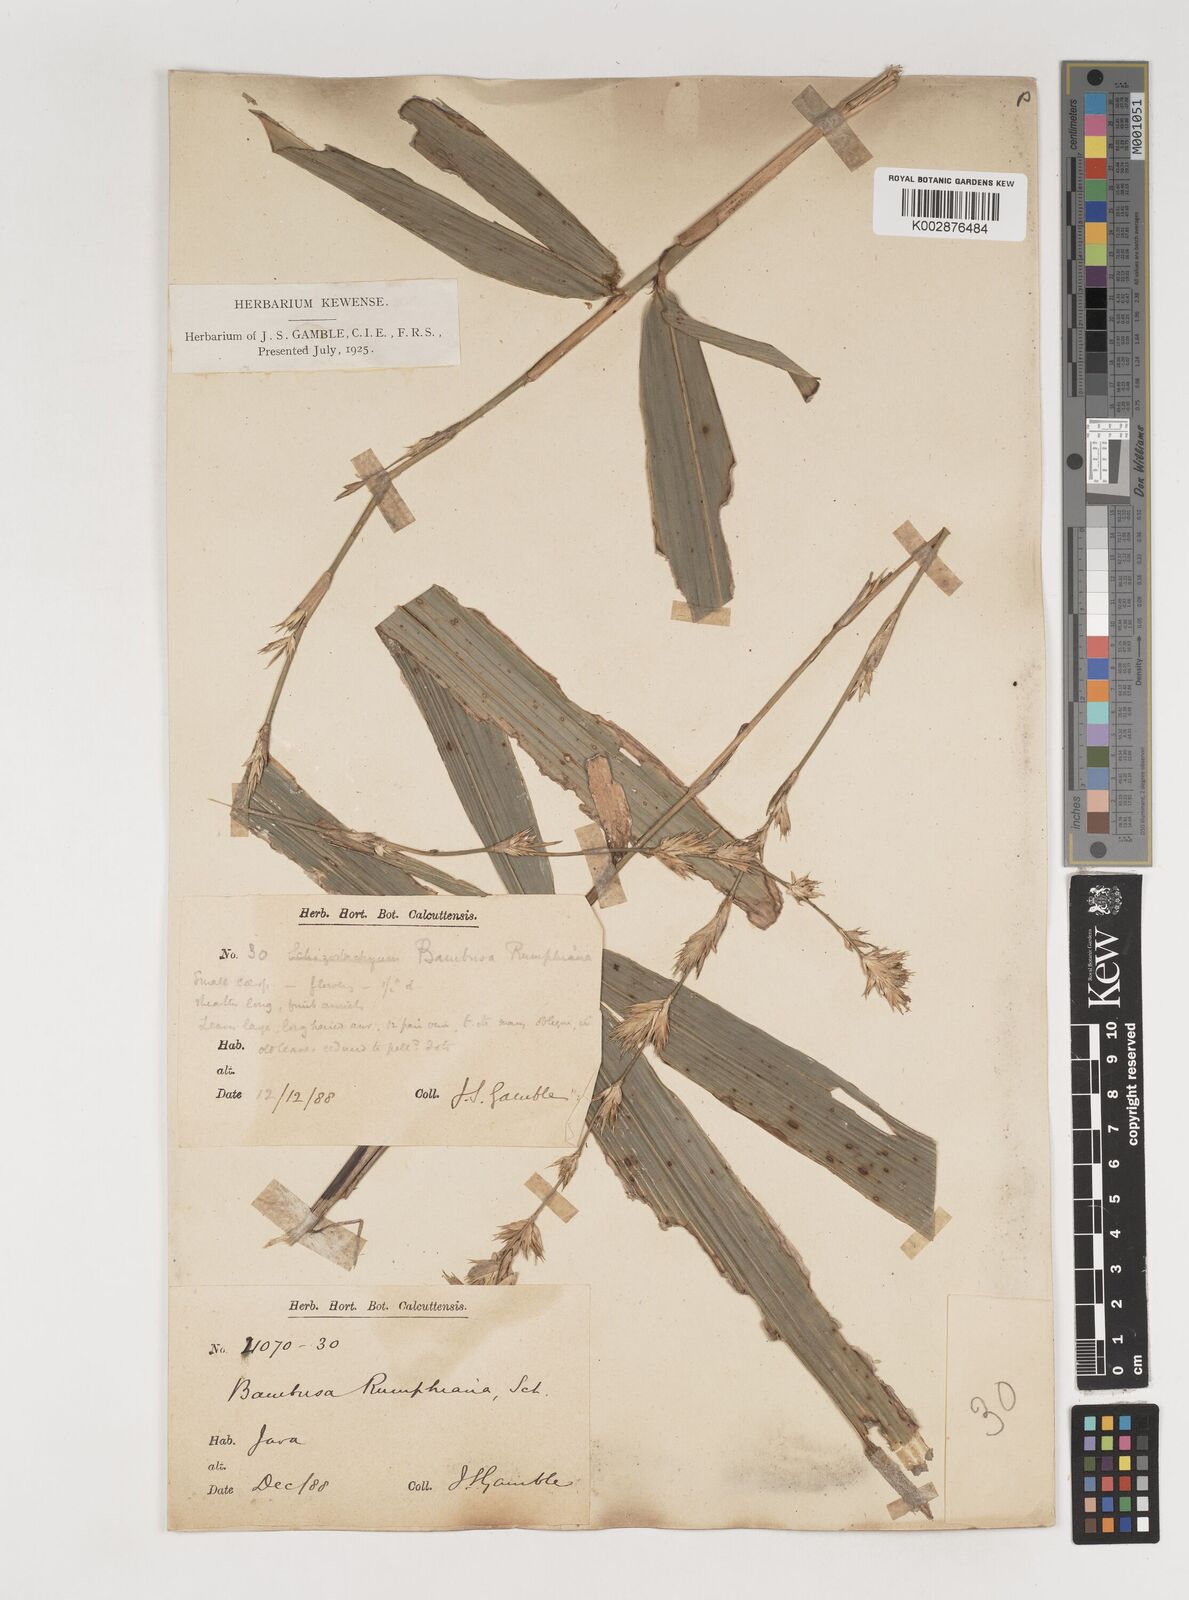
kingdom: Plantae
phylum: Tracheophyta
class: Liliopsida
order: Poales
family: Poaceae
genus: Neololeba
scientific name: Neololeba amahussana
